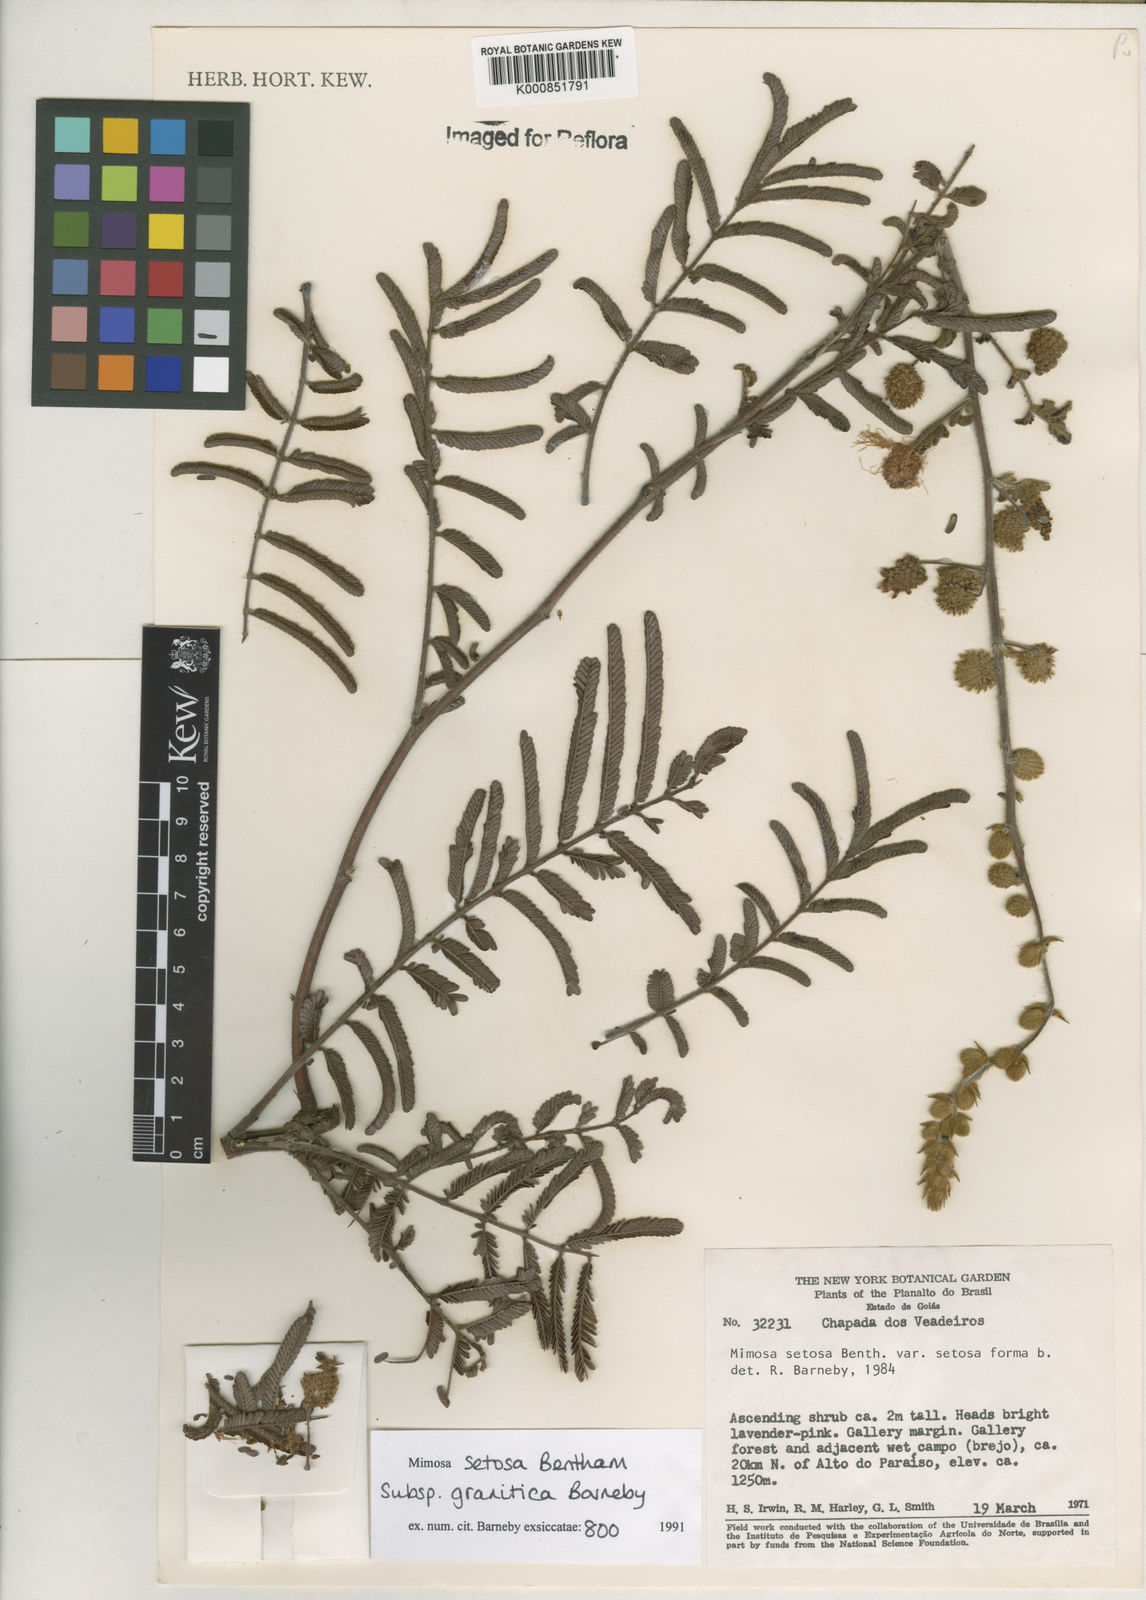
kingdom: Plantae
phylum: Tracheophyta
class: Magnoliopsida
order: Fabales
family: Fabaceae
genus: Mimosa
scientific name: Mimosa granitica
